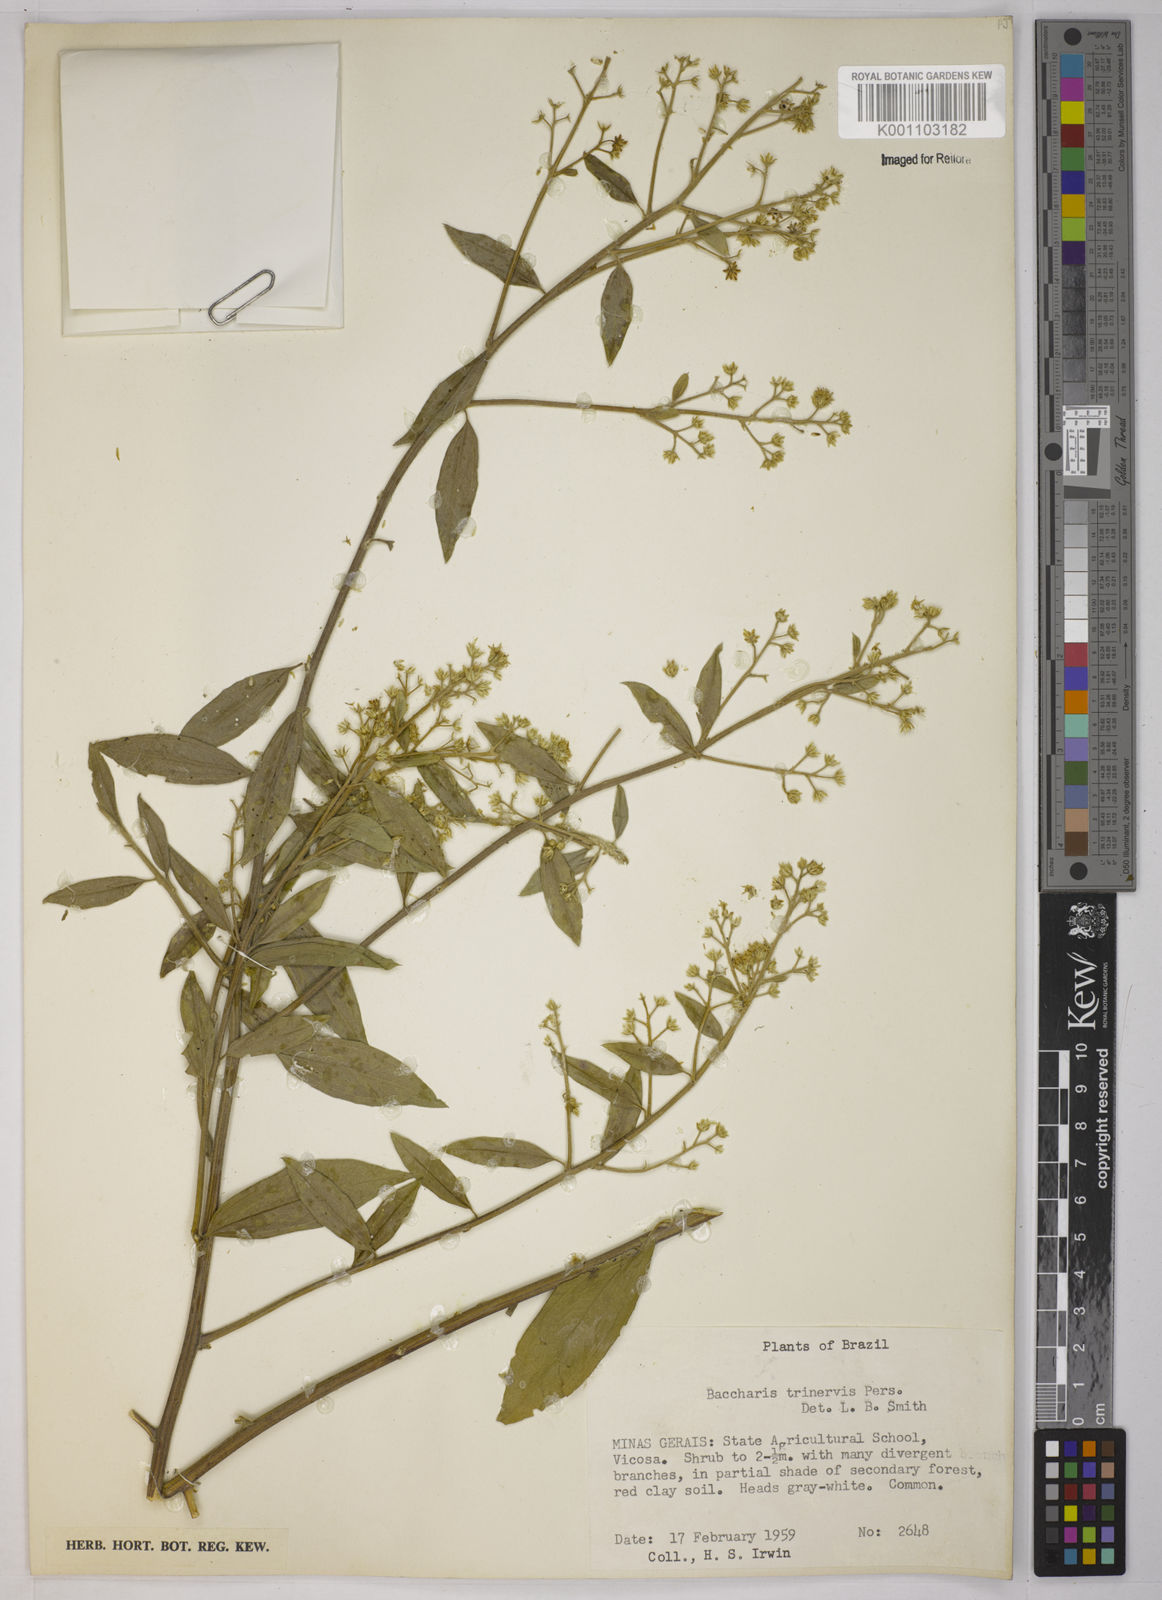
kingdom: Plantae
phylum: Tracheophyta
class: Magnoliopsida
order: Asterales
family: Asteraceae
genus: Baccharis
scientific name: Baccharis trinervis
